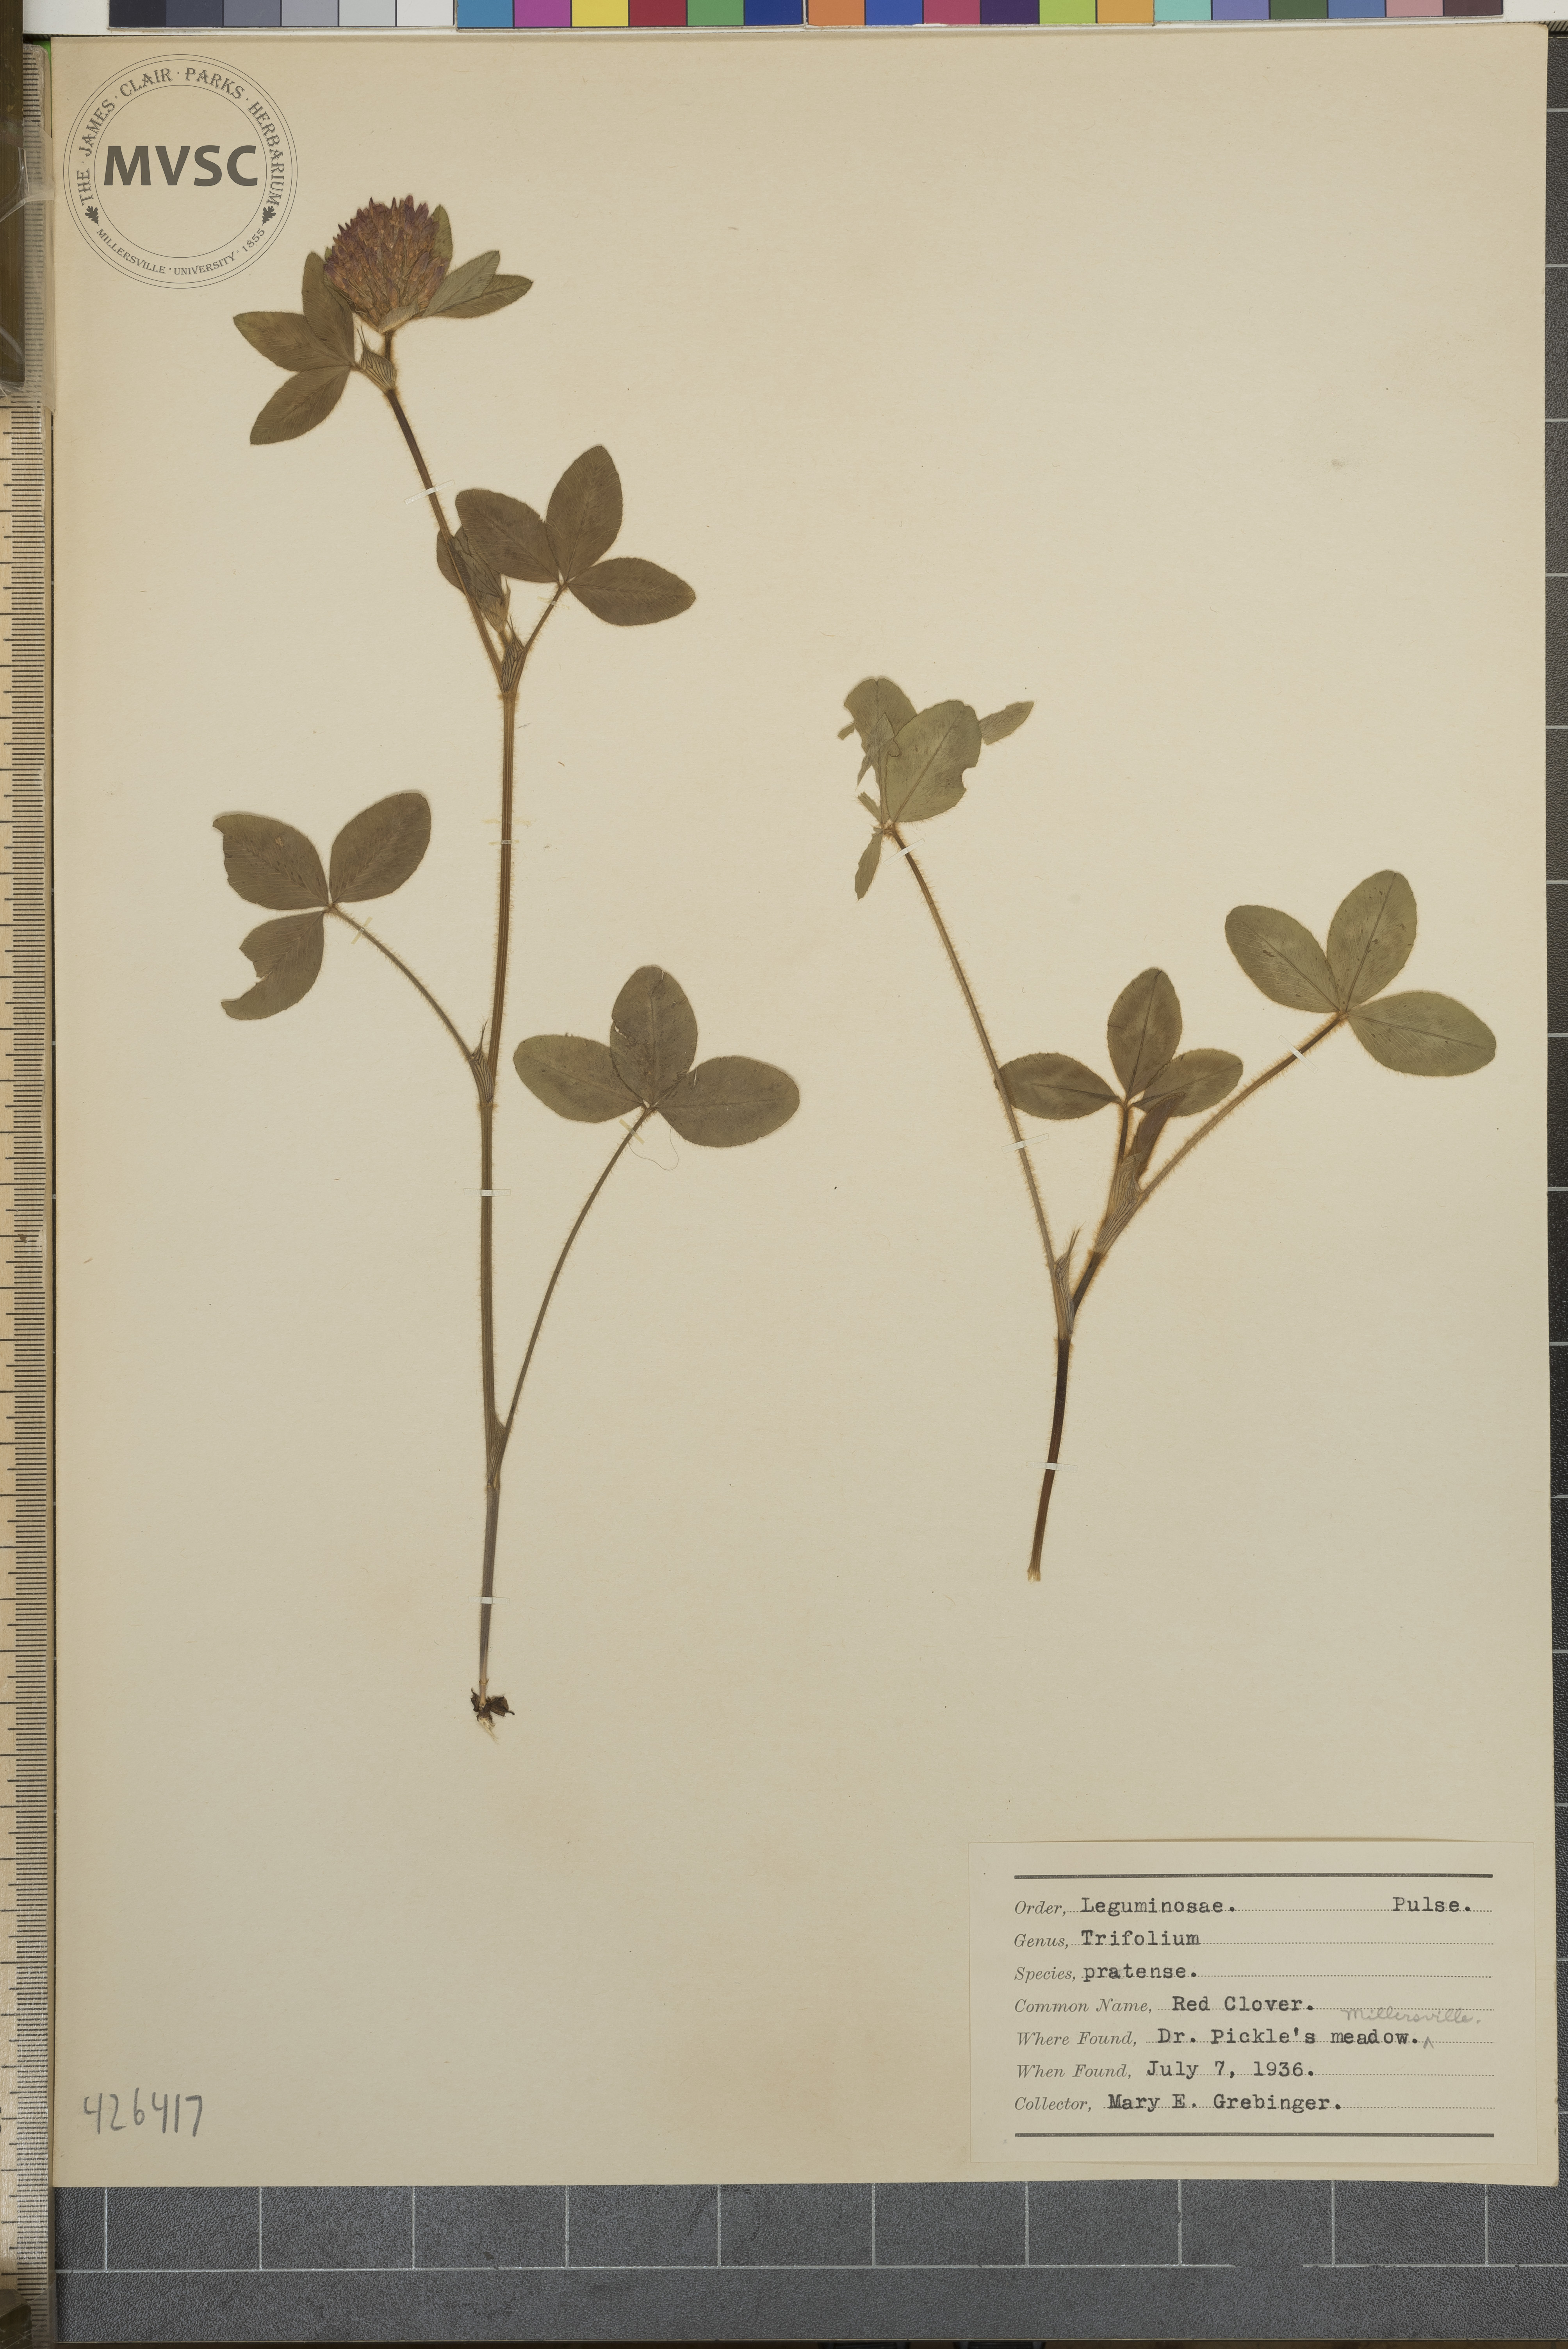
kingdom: Plantae
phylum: Tracheophyta
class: Magnoliopsida
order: Fabales
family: Fabaceae
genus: Trifolium
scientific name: Trifolium pratense
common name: Red Clover
